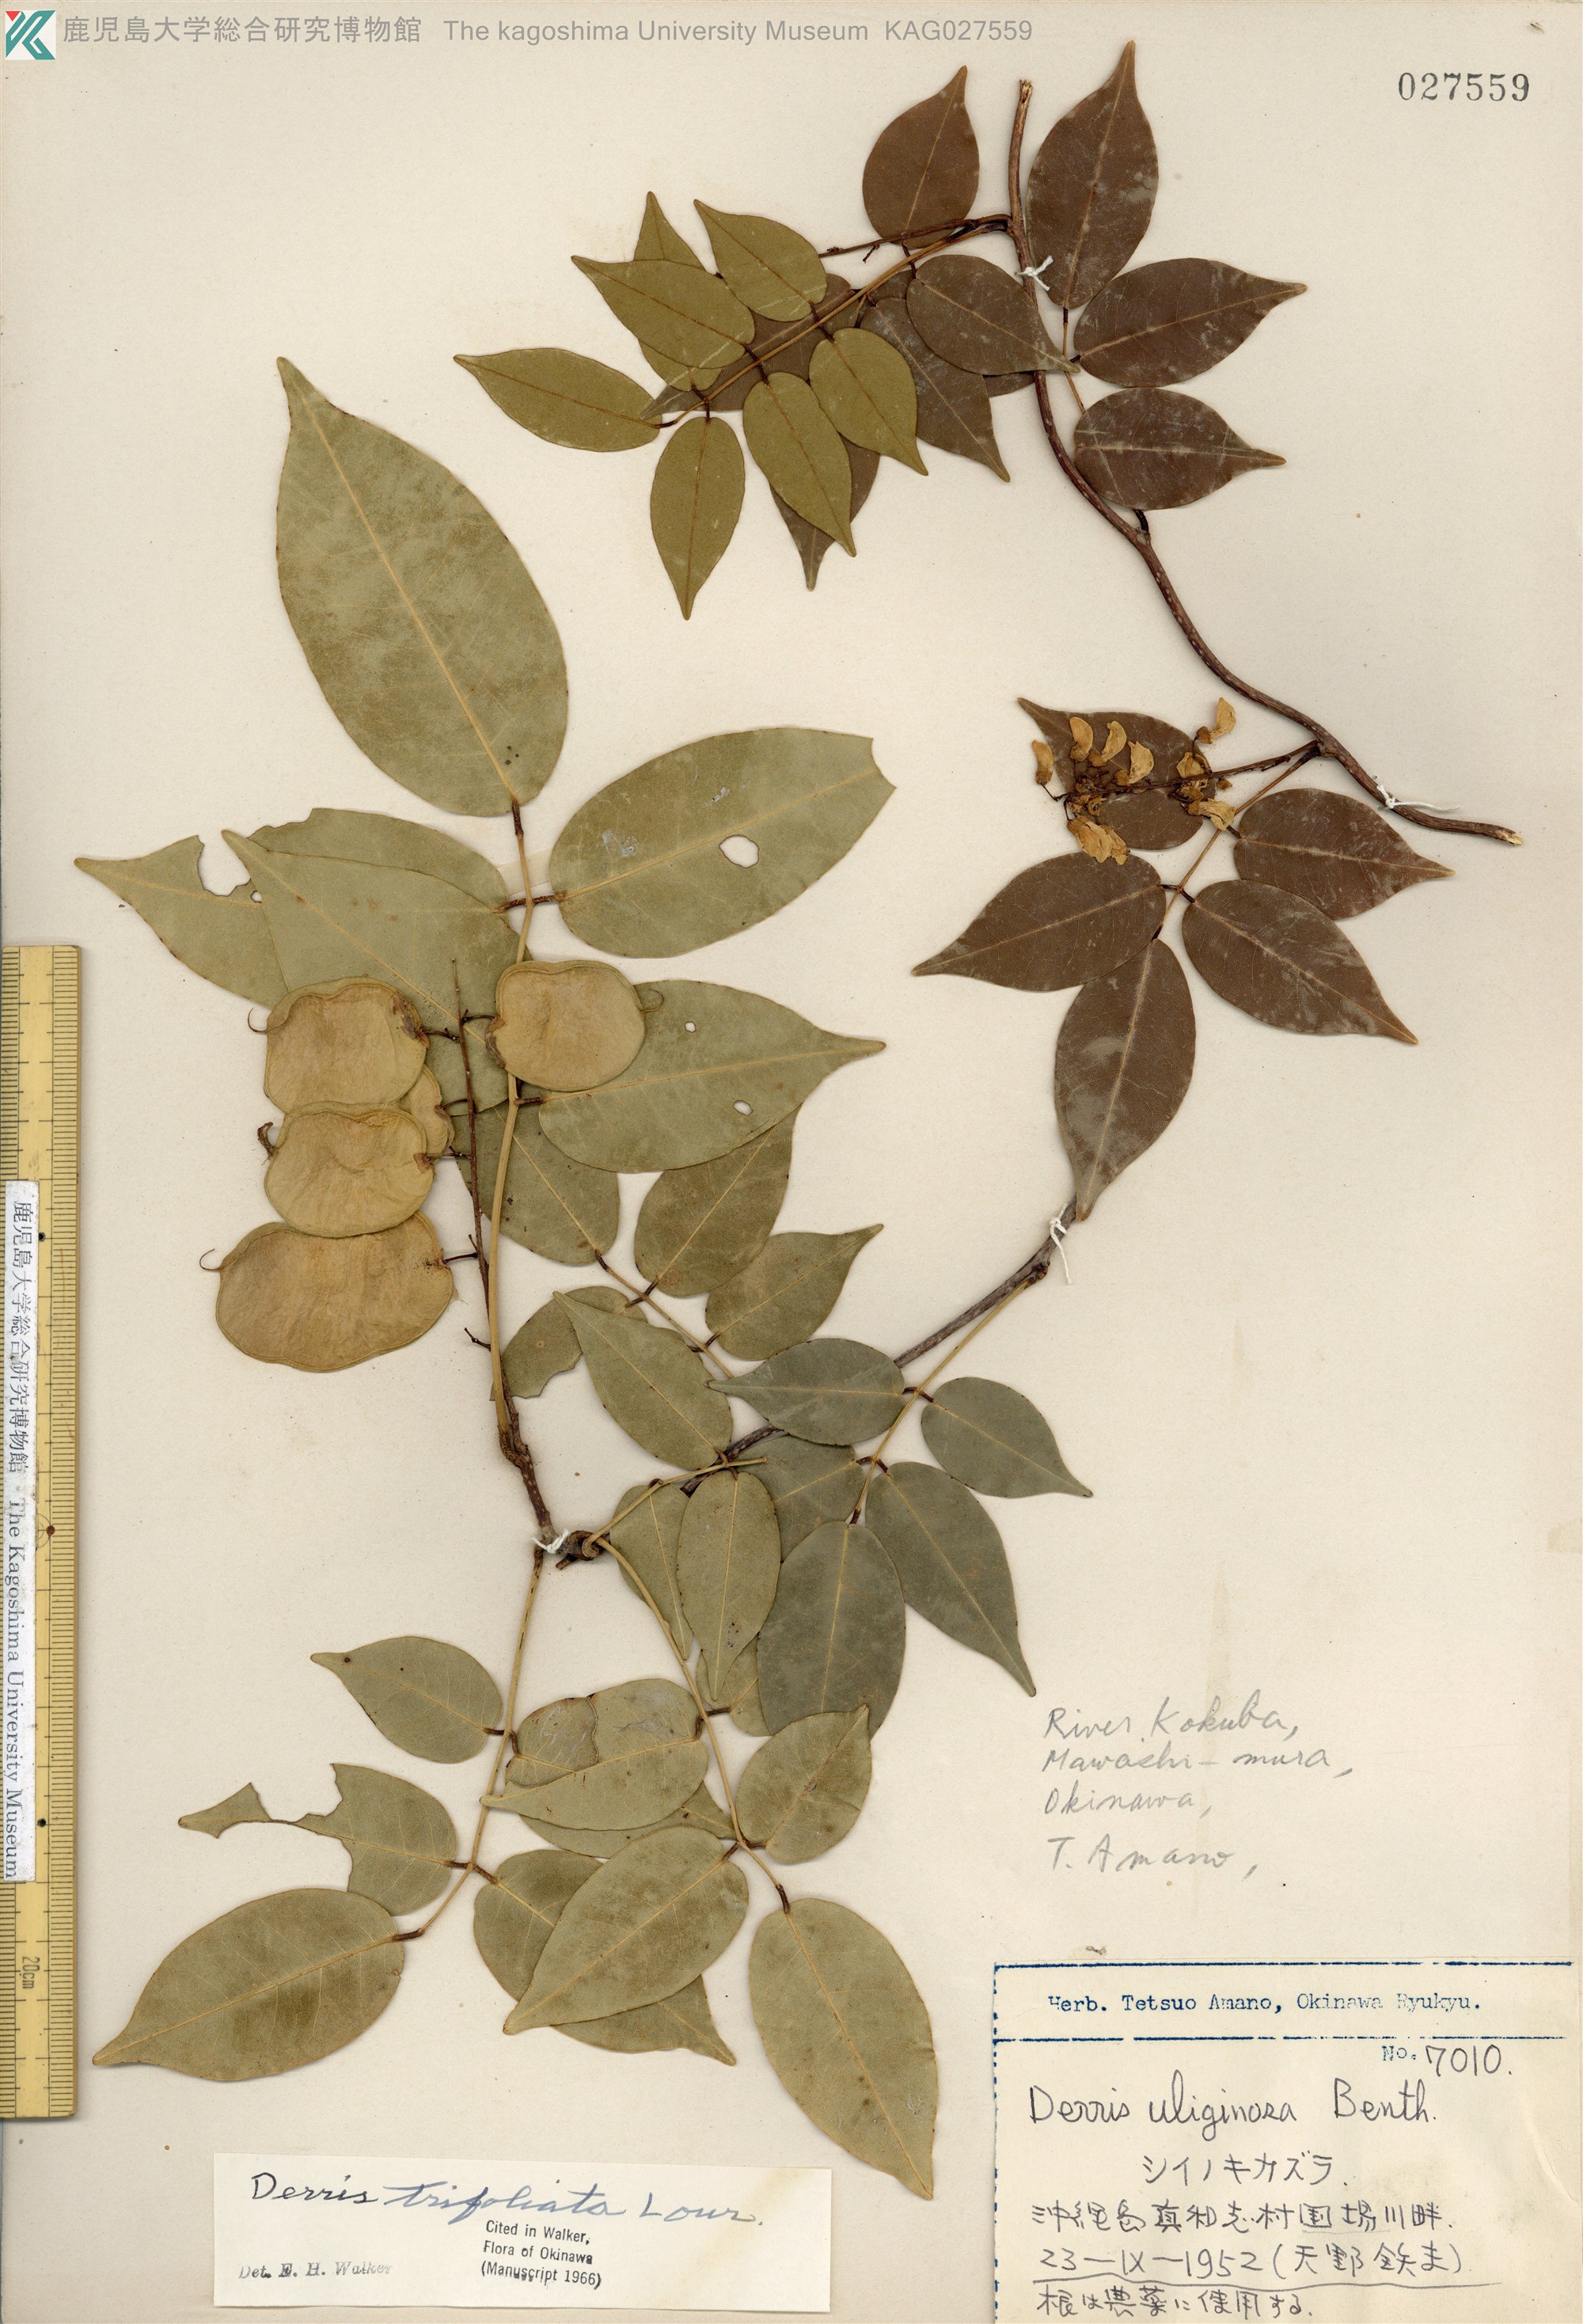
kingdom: Plantae
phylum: Tracheophyta
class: Magnoliopsida
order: Fabales
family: Fabaceae
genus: Derris
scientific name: Derris trifoliata
